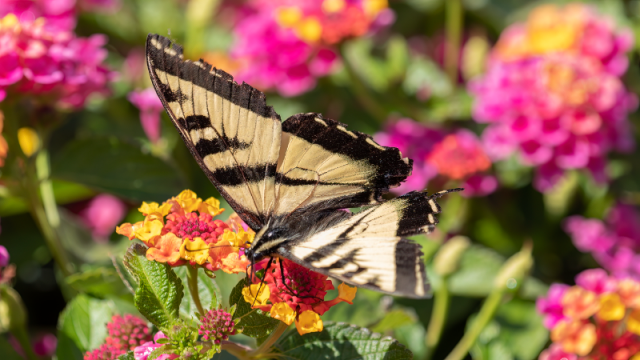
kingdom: Animalia
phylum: Arthropoda
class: Insecta
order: Lepidoptera
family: Papilionidae
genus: Pterourus
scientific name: Pterourus rutulus
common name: Western Tiger Swallowtail
